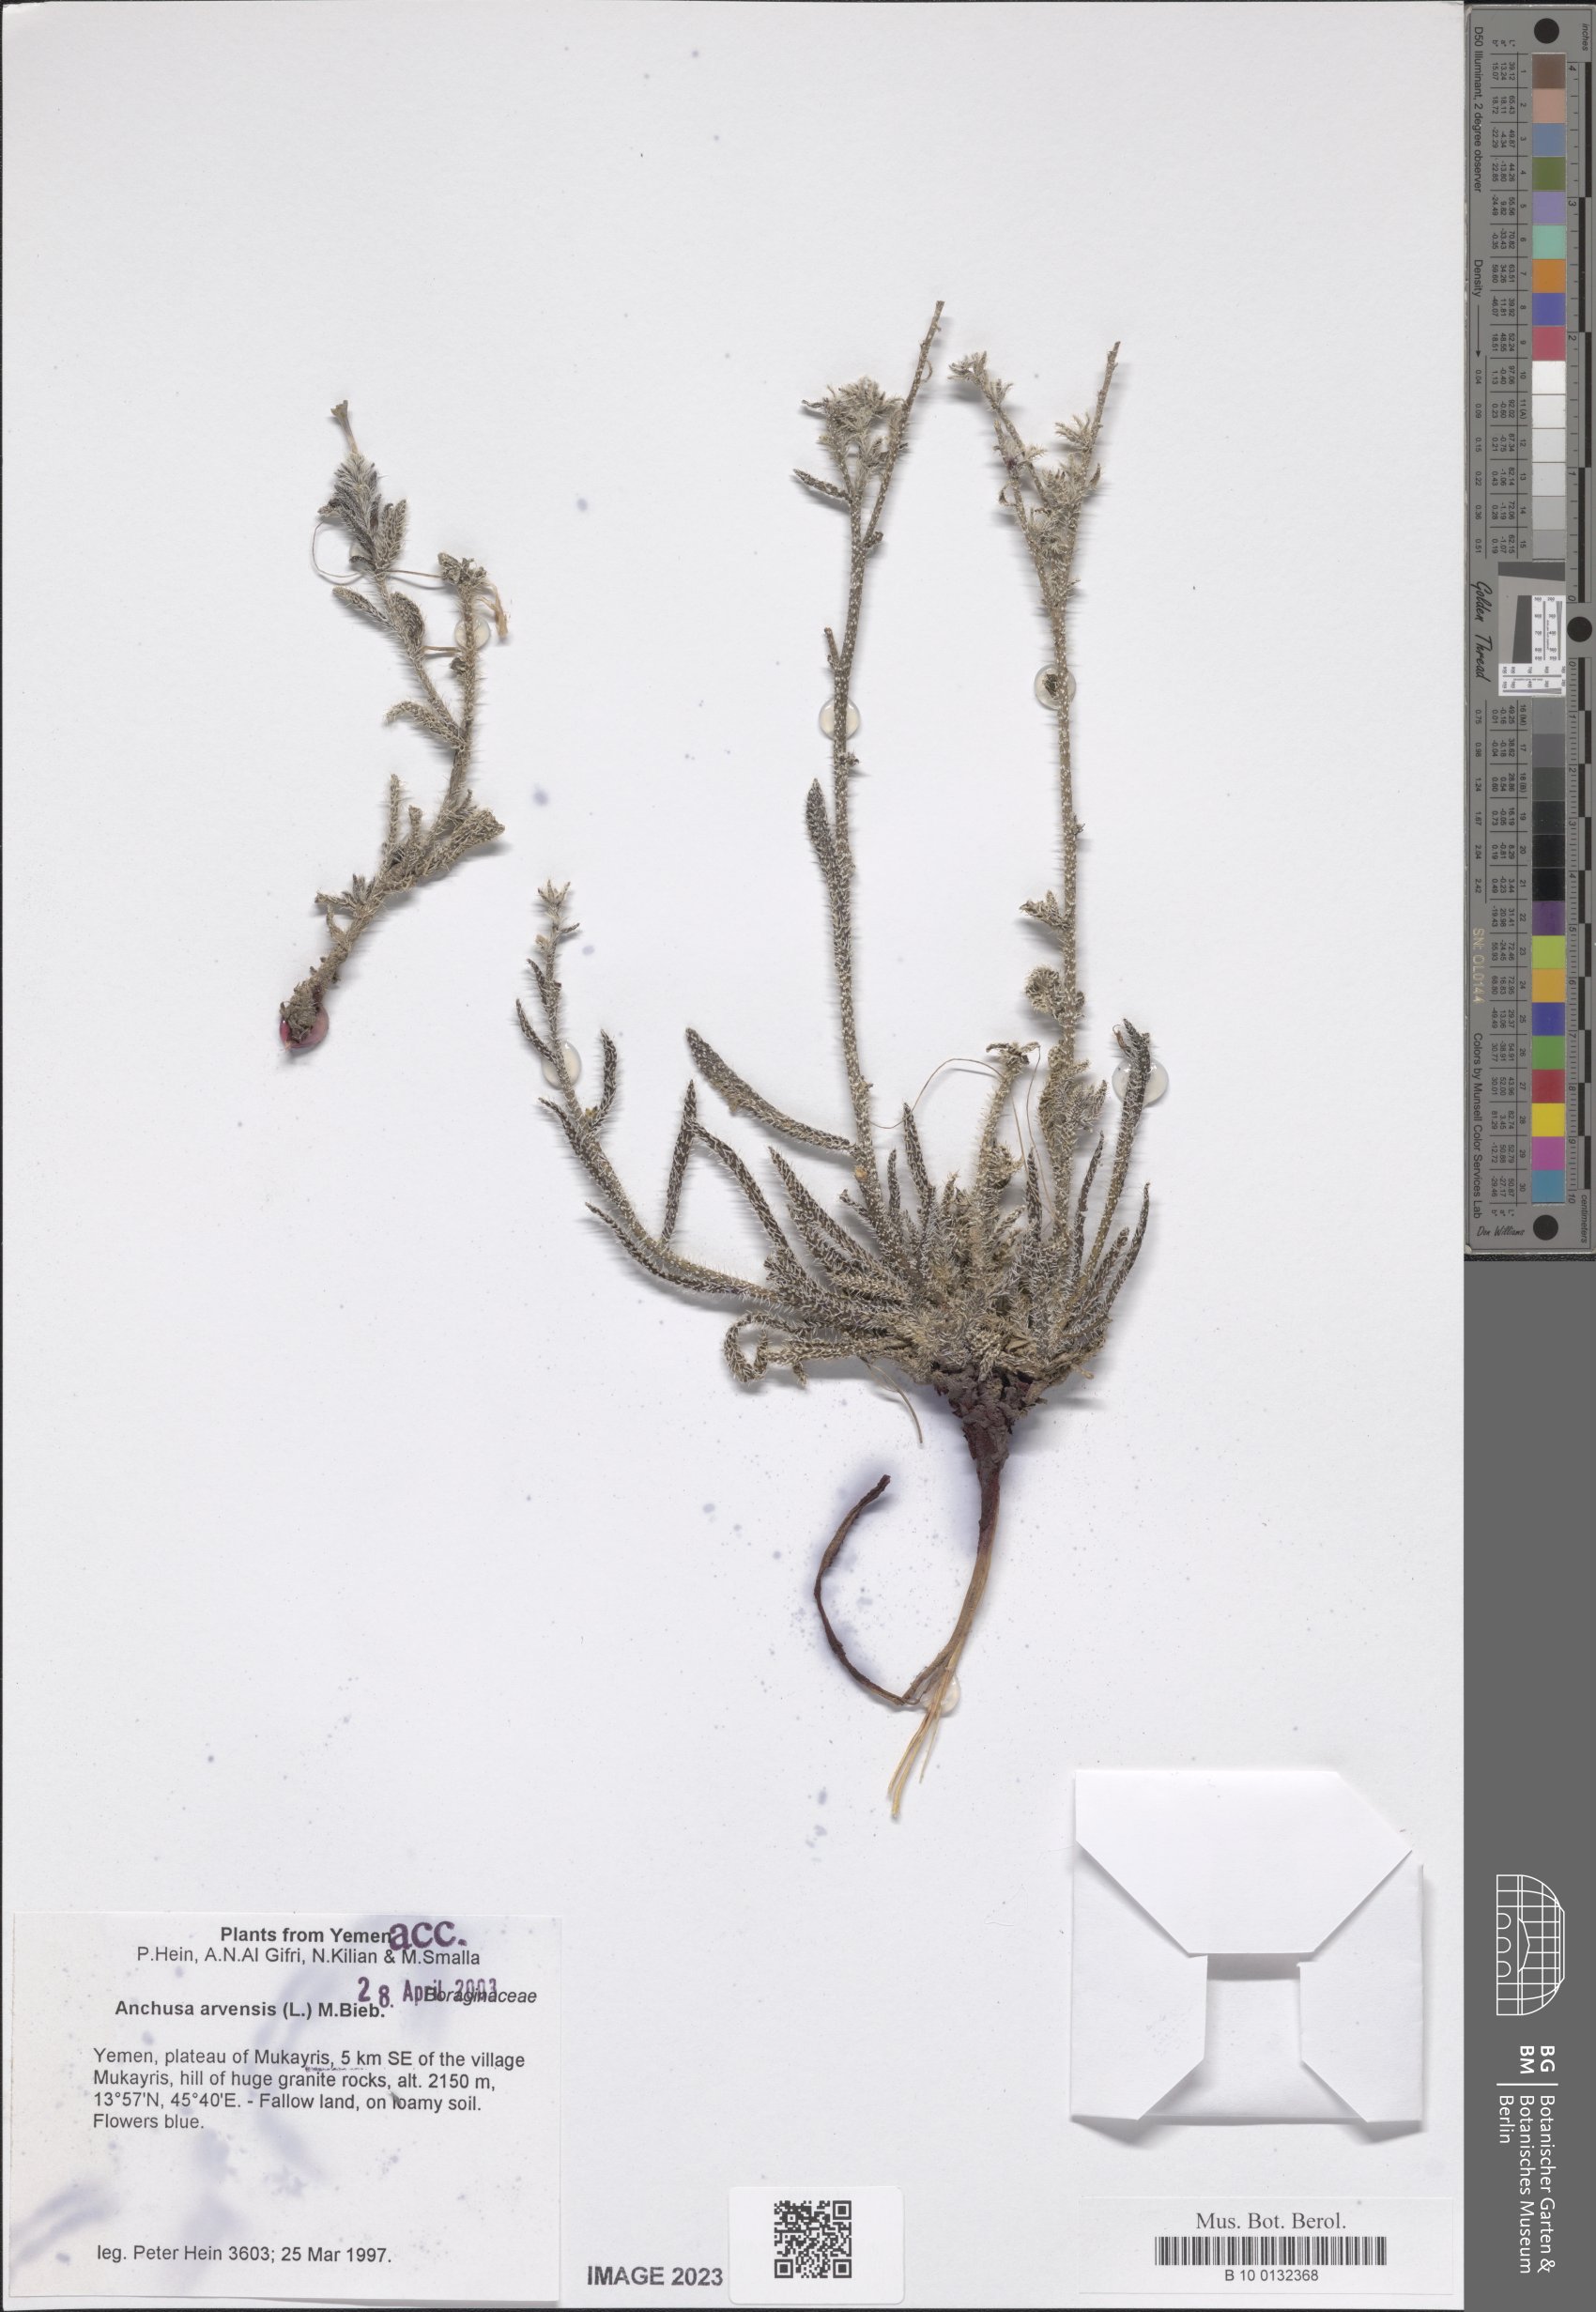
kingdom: Plantae
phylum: Tracheophyta
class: Magnoliopsida
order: Boraginales
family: Boraginaceae
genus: Lycopsis
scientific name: Lycopsis arvensis
